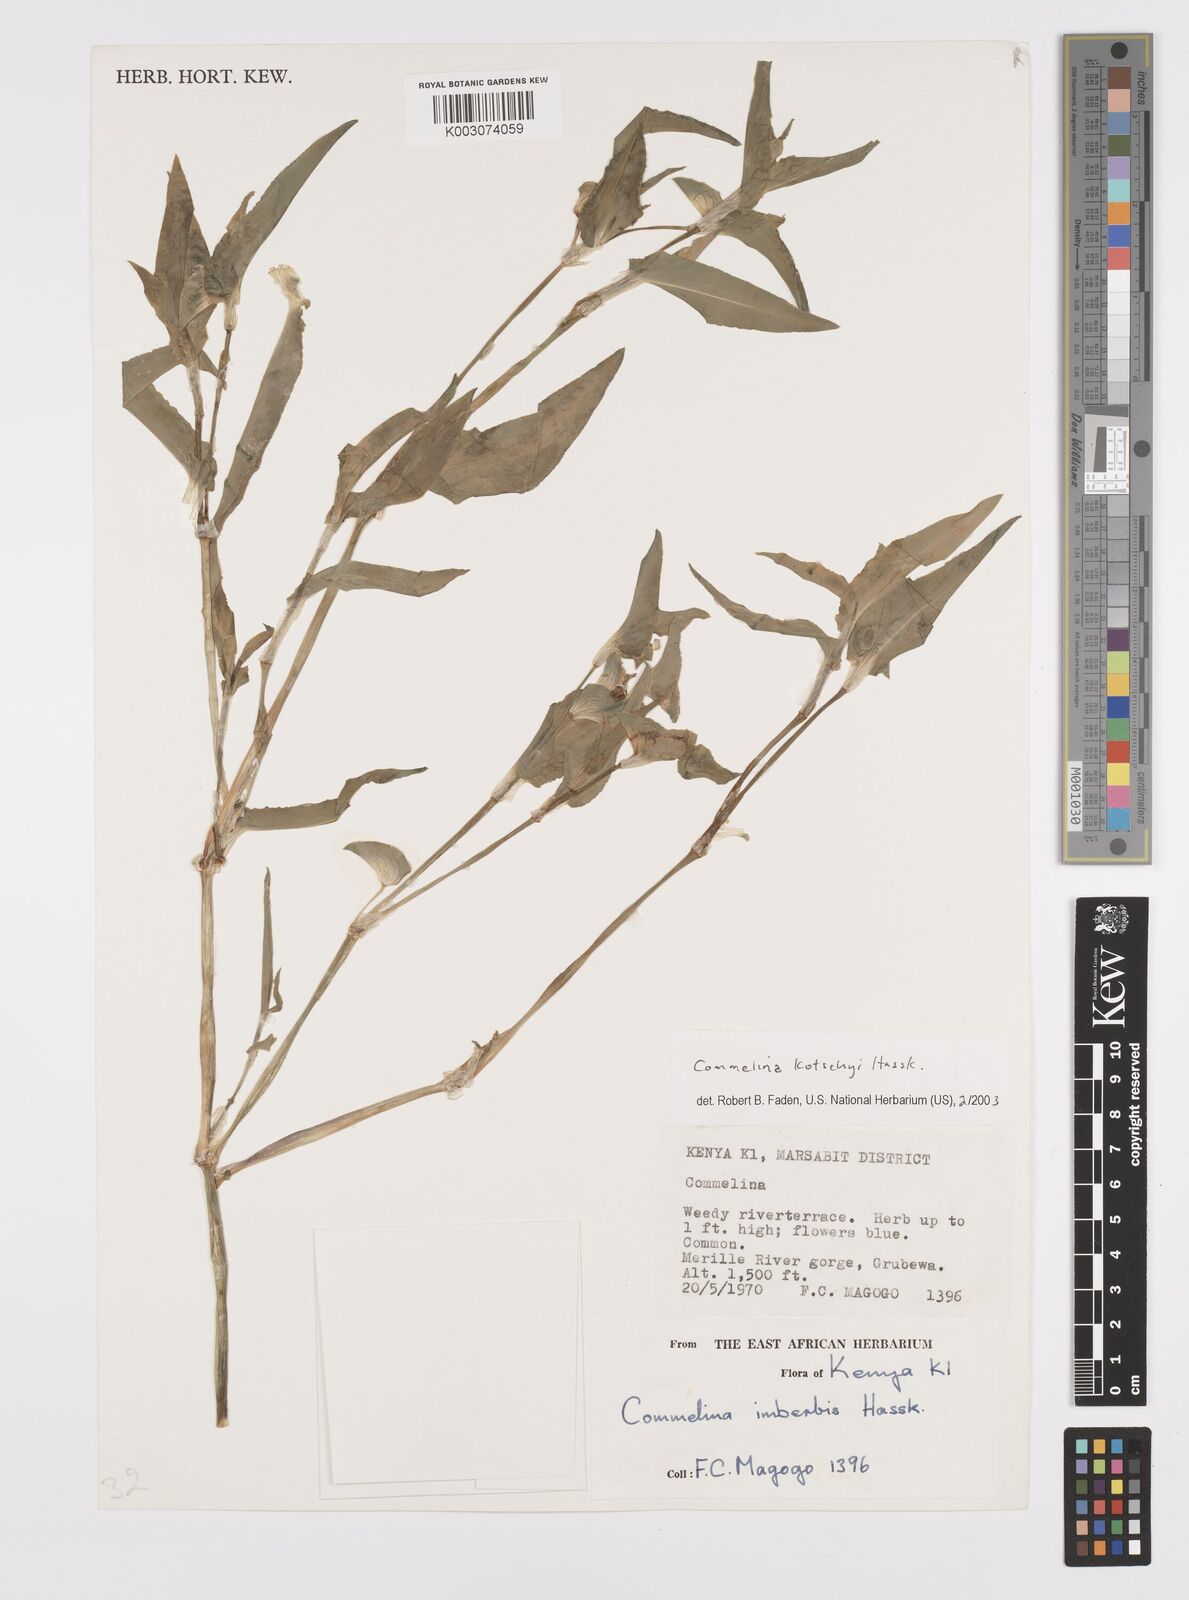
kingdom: Plantae
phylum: Tracheophyta
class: Liliopsida
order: Commelinales
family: Commelinaceae
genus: Commelina
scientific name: Commelina kotschyi
